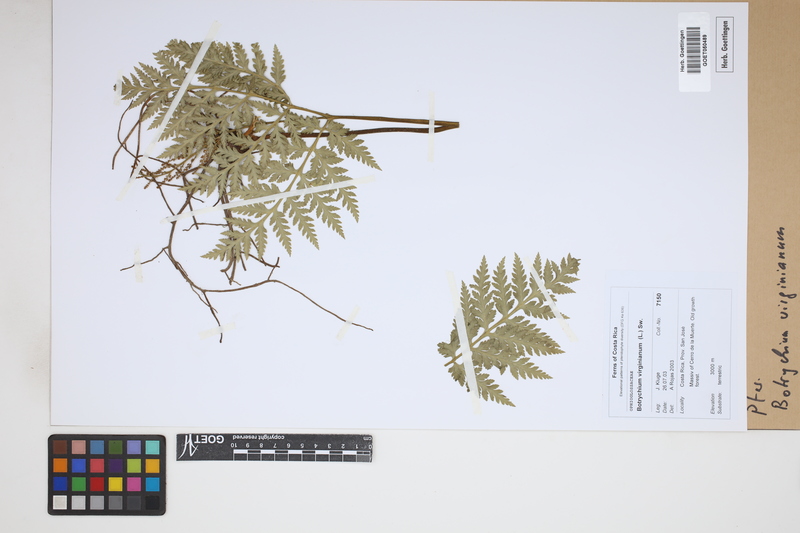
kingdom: Plantae
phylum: Tracheophyta
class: Polypodiopsida
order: Ophioglossales
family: Ophioglossaceae
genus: Botrychium
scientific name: Botrychium virginianum
